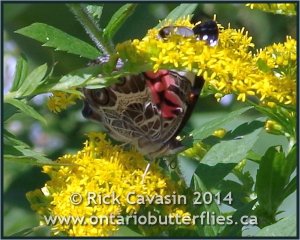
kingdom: Animalia
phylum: Arthropoda
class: Insecta
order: Lepidoptera
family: Nymphalidae
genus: Vanessa
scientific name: Vanessa virginiensis
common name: American Lady
